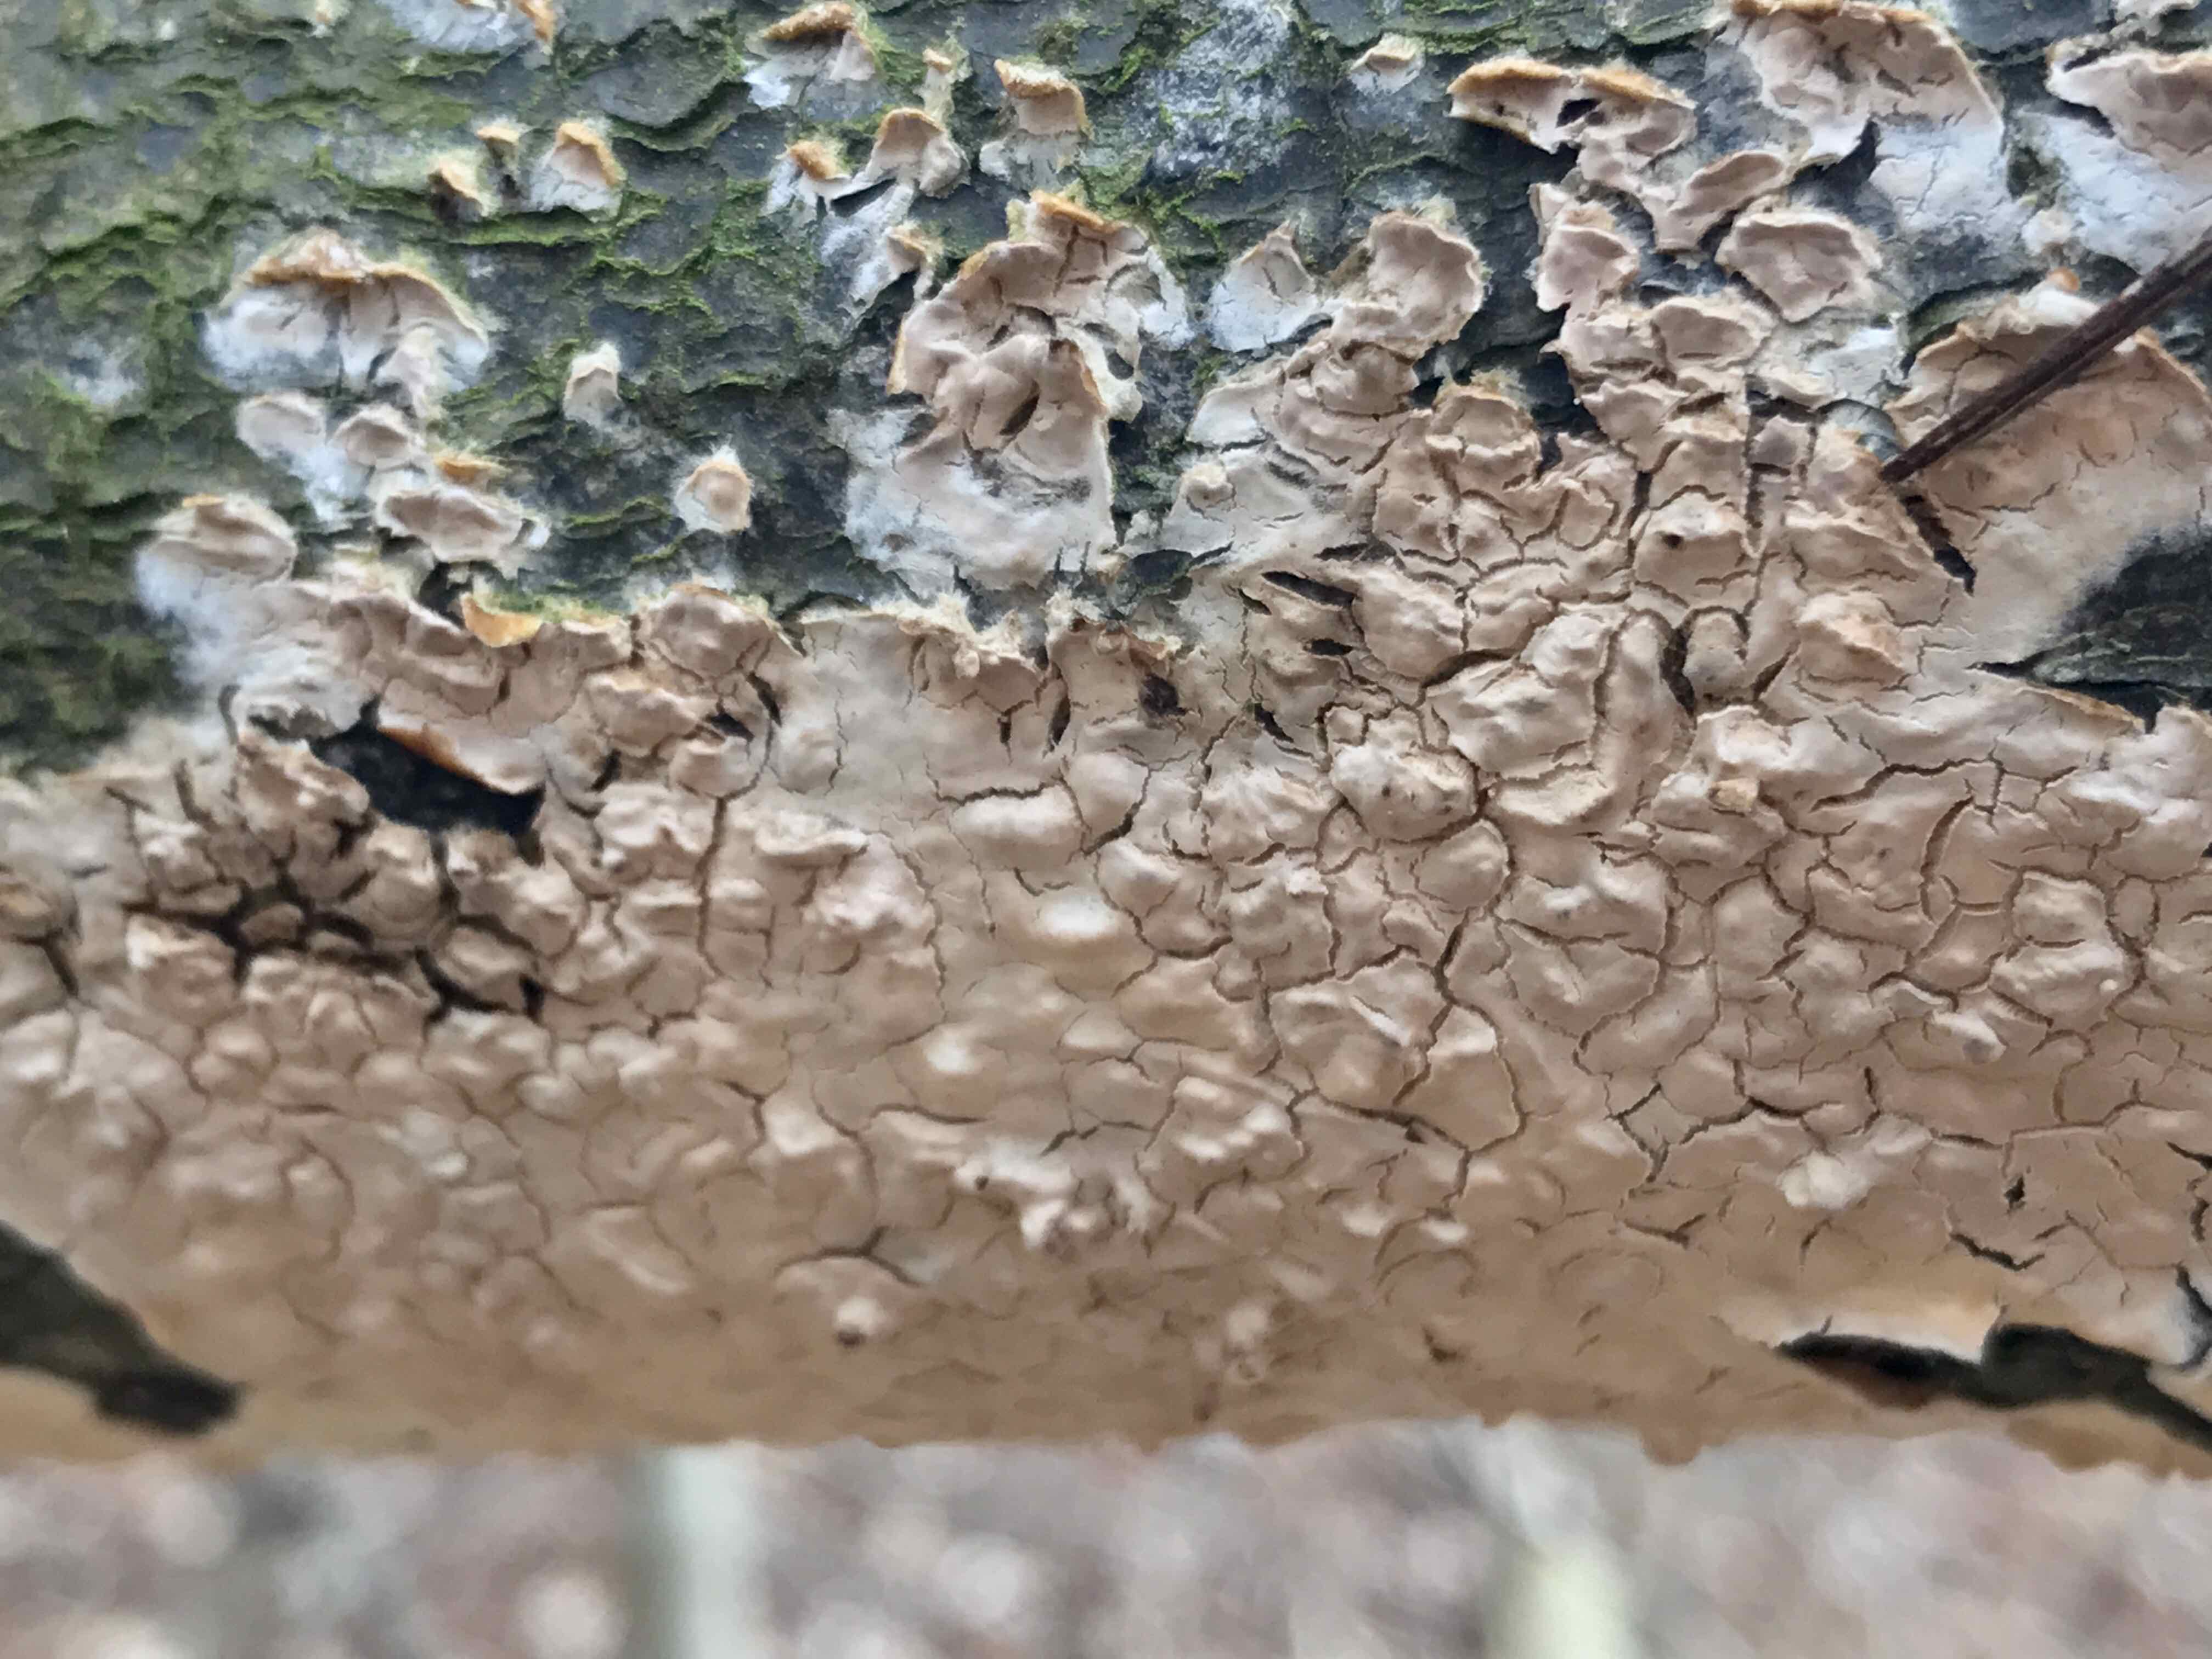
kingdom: Fungi
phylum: Basidiomycota
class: Agaricomycetes
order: Agaricales
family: Physalacriaceae
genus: Cylindrobasidium
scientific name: Cylindrobasidium evolvens
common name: sprækkehinde
